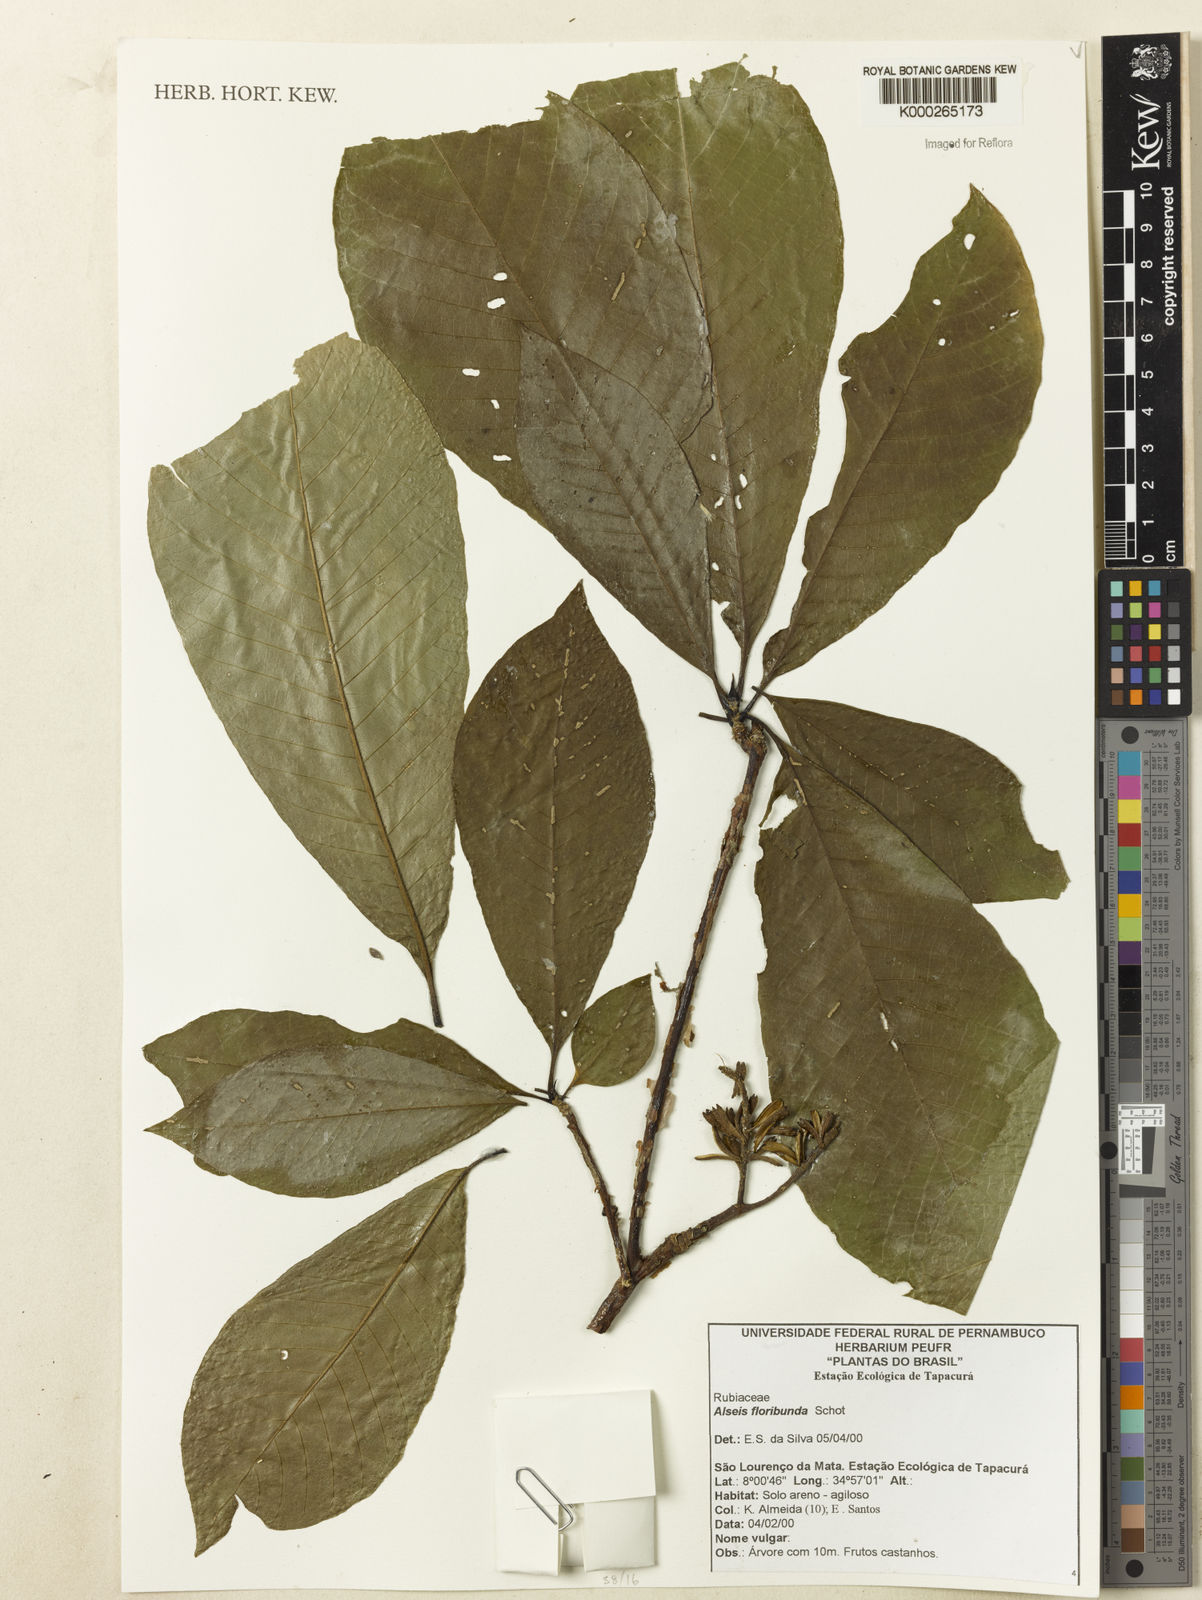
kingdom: Plantae
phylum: Tracheophyta
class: Magnoliopsida
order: Gentianales
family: Rubiaceae
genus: Alseis
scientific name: Alseis floribunda
